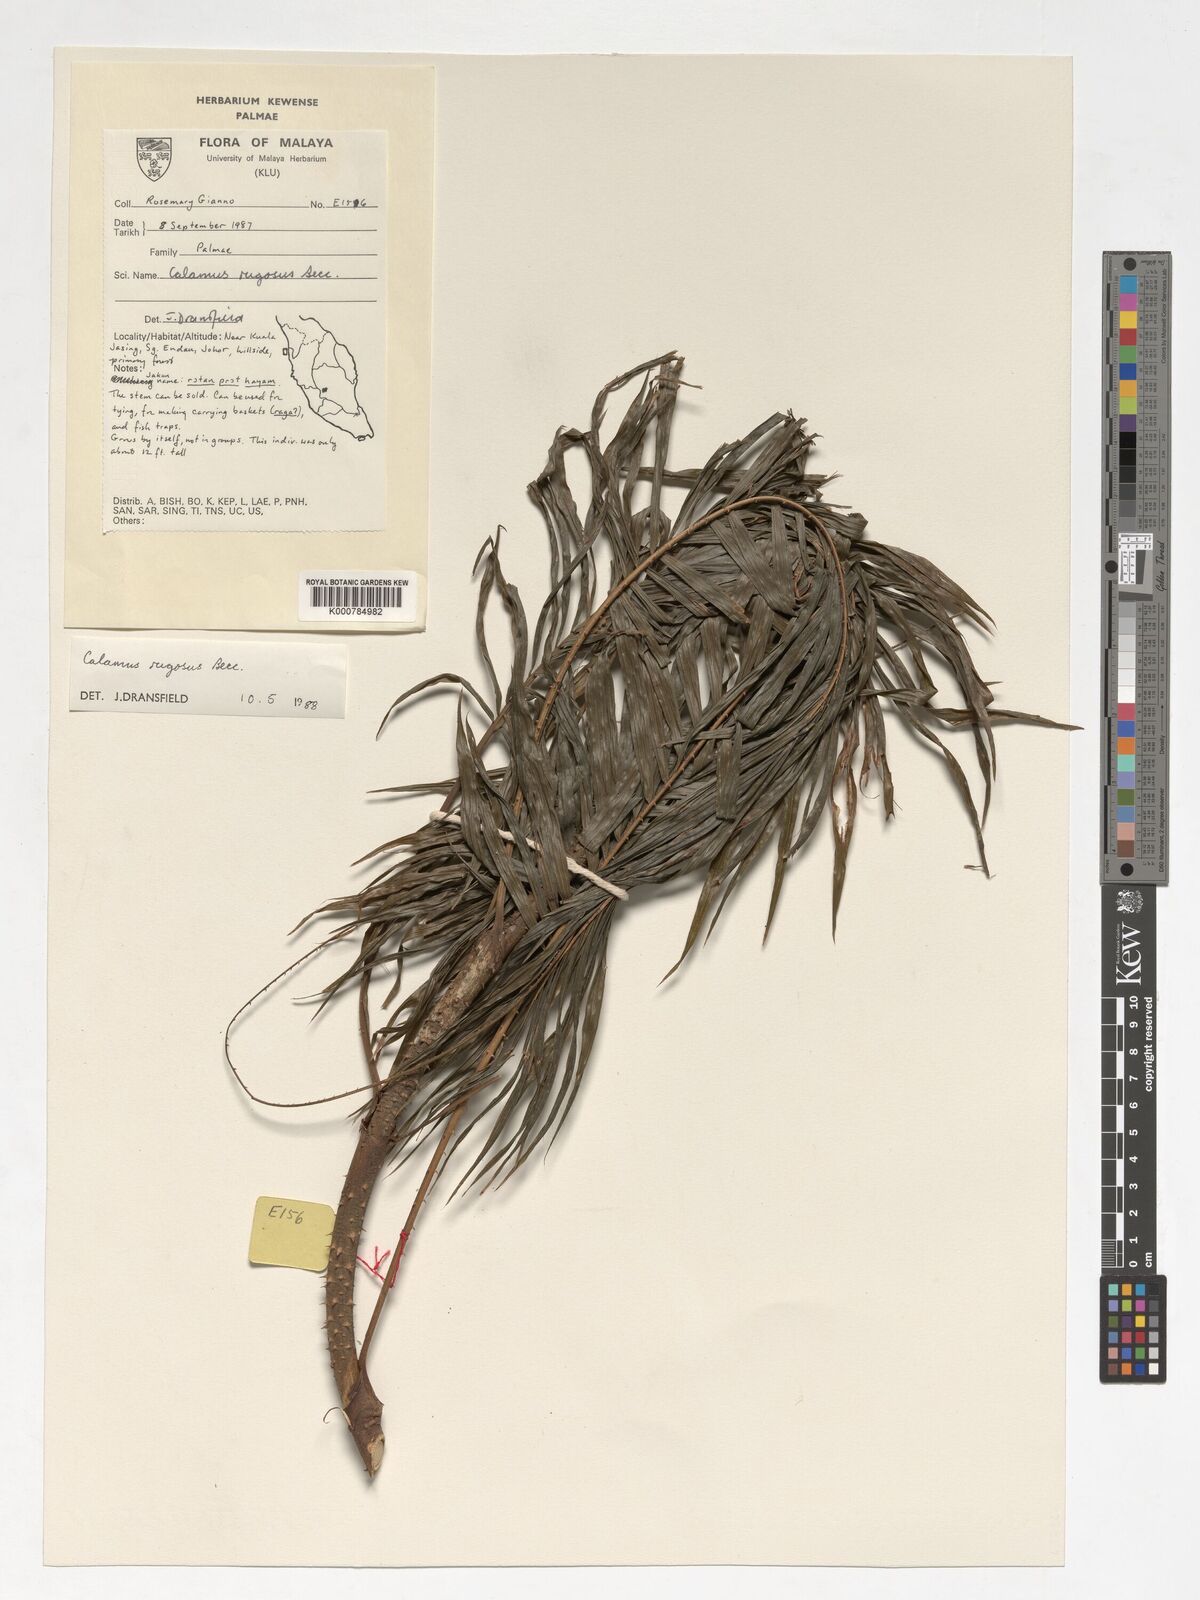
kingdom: Plantae
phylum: Tracheophyta
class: Liliopsida
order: Arecales
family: Arecaceae
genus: Calamus
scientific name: Calamus rugosus
